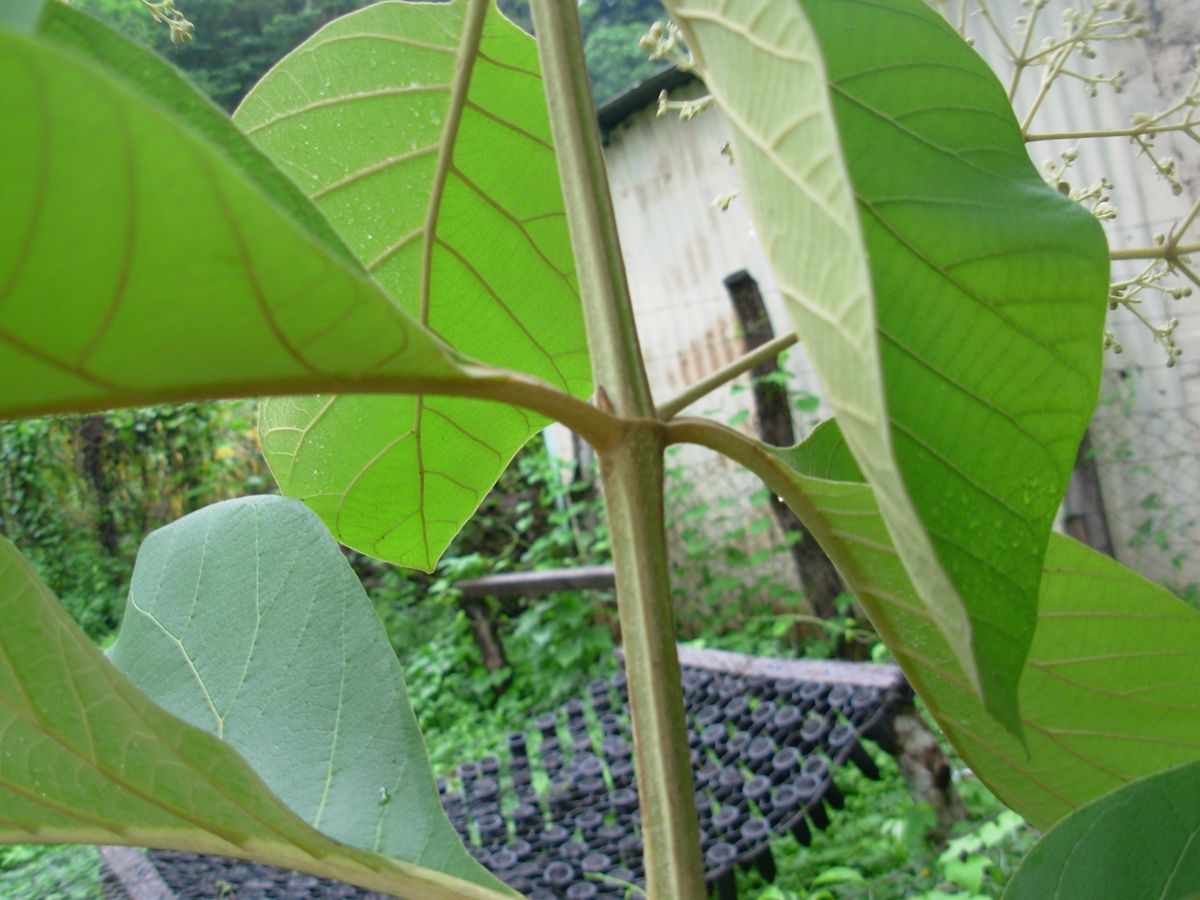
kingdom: Plantae
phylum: Tracheophyta
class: Magnoliopsida
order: Lamiales
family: Lamiaceae
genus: Tectona
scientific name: Tectona grandis
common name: Teak
